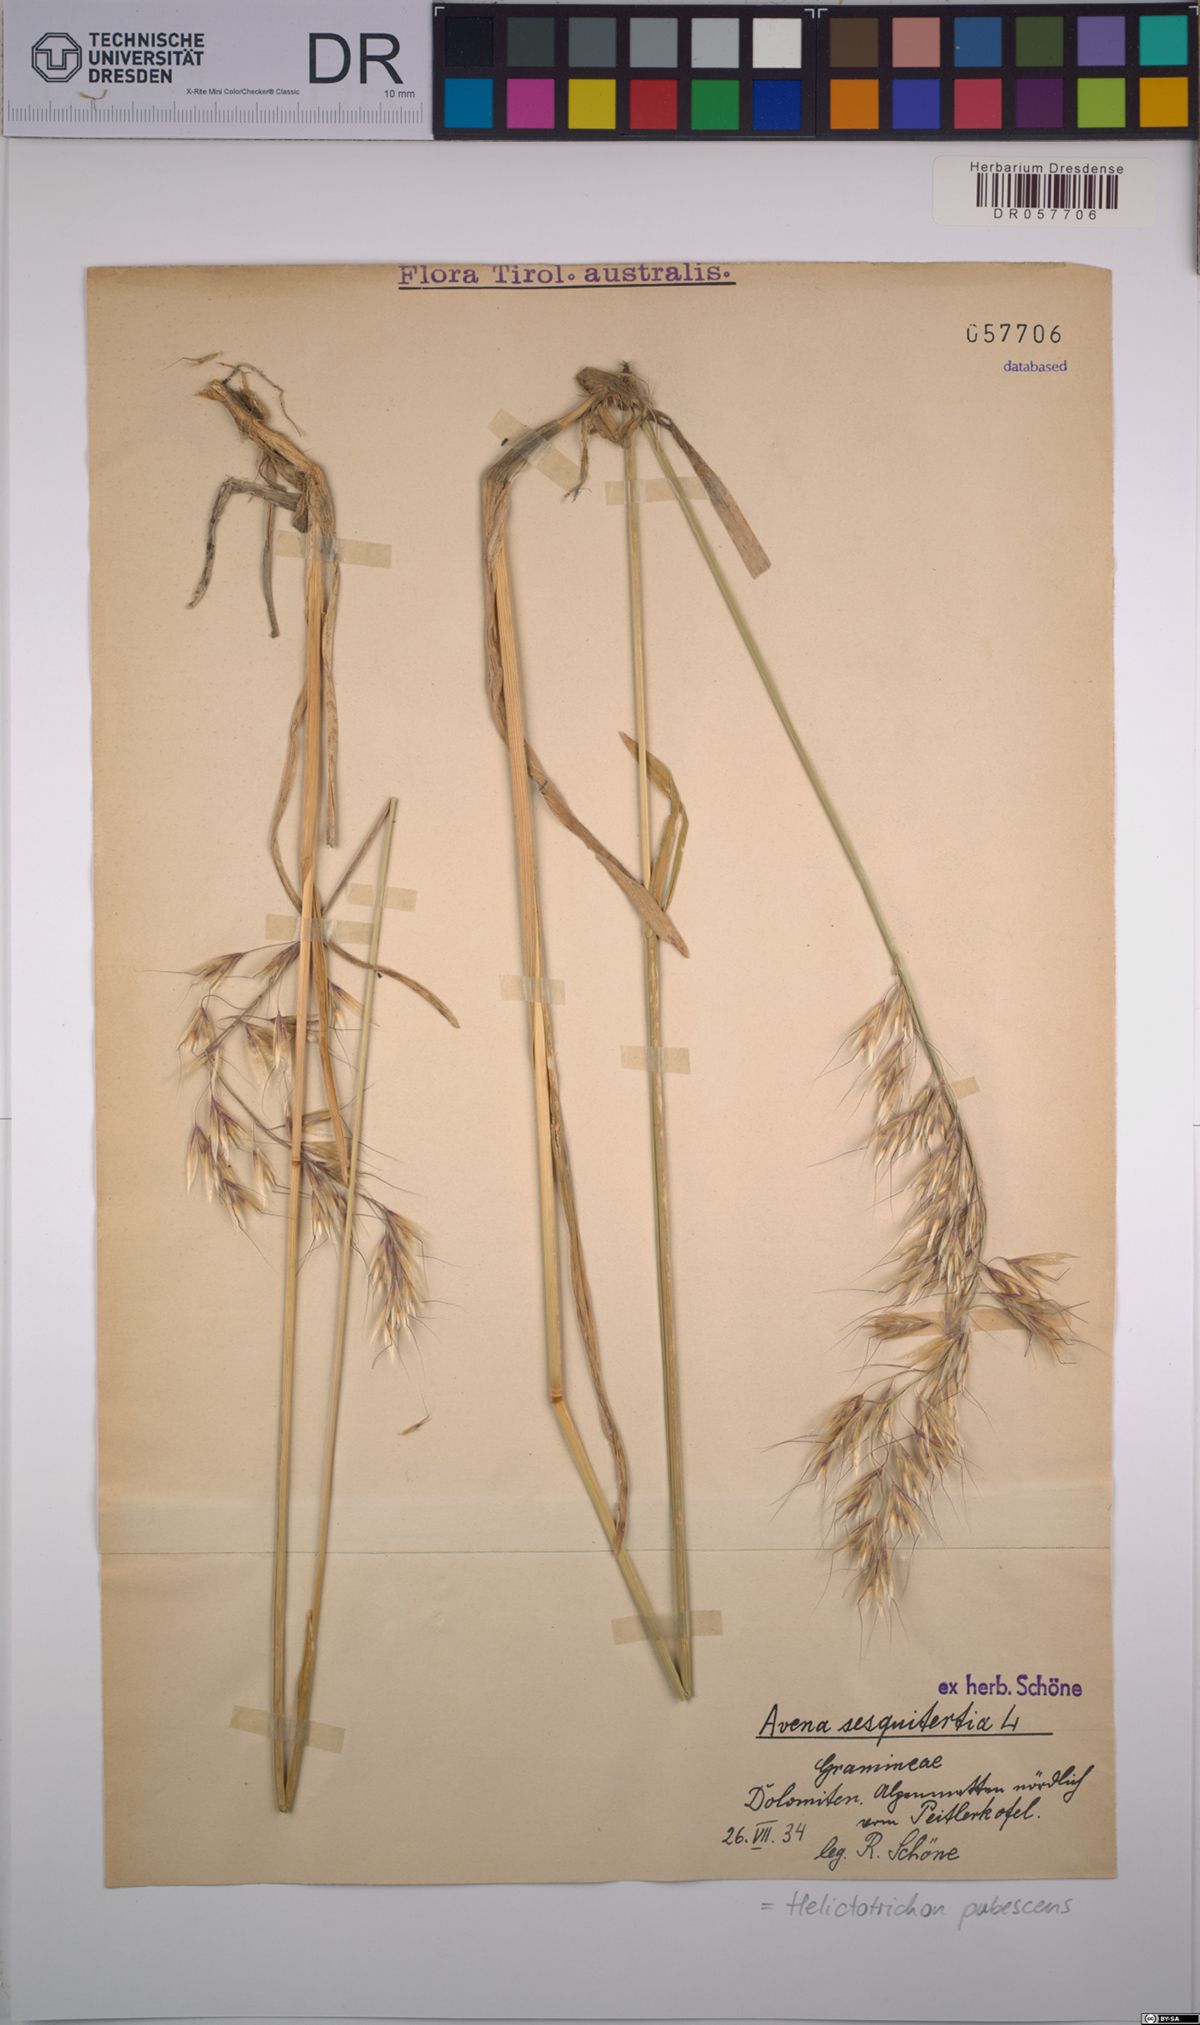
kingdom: Plantae
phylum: Tracheophyta
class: Liliopsida
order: Poales
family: Poaceae
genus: Avenula
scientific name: Avenula pubescens
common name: Downy alpine oatgrass
